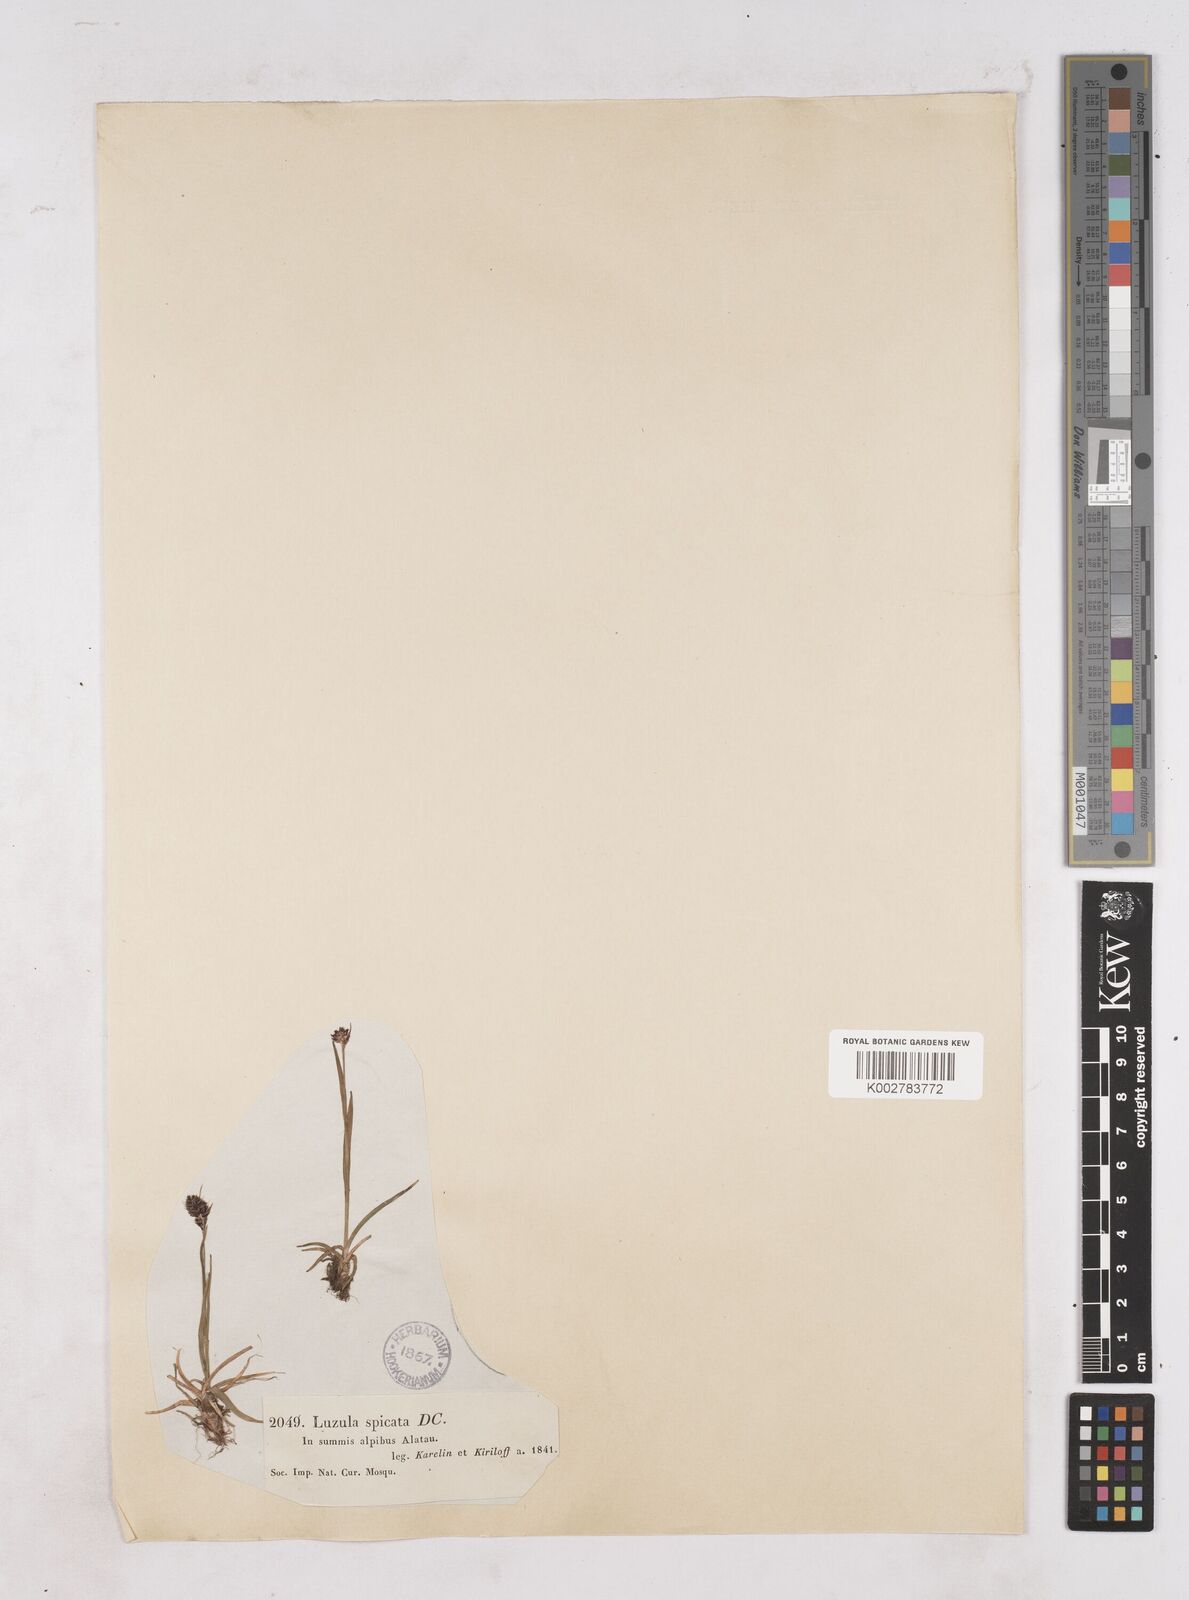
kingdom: Plantae
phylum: Tracheophyta
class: Liliopsida
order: Poales
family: Juncaceae
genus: Luzula
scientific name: Luzula spicata
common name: Spiked wood-rush
